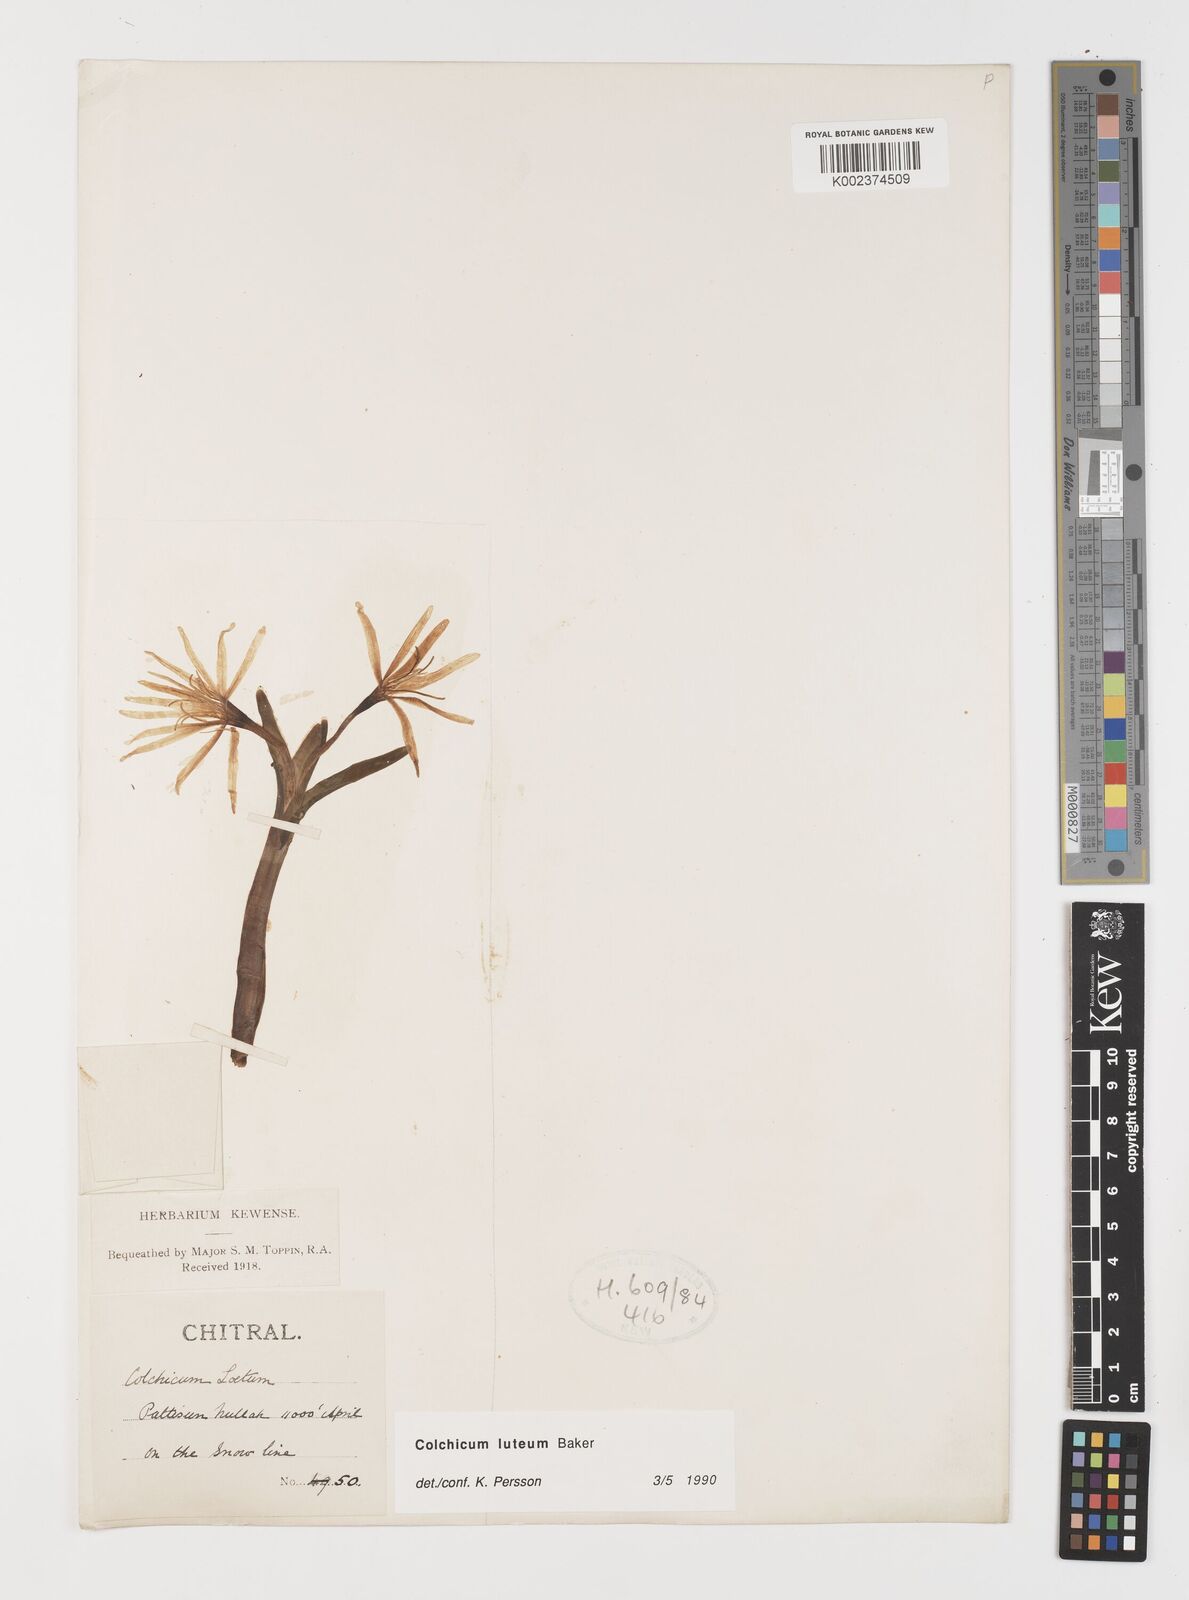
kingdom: Plantae
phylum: Tracheophyta
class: Liliopsida
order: Liliales
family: Colchicaceae
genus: Colchicum
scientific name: Colchicum luteum
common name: Indian colchicum
